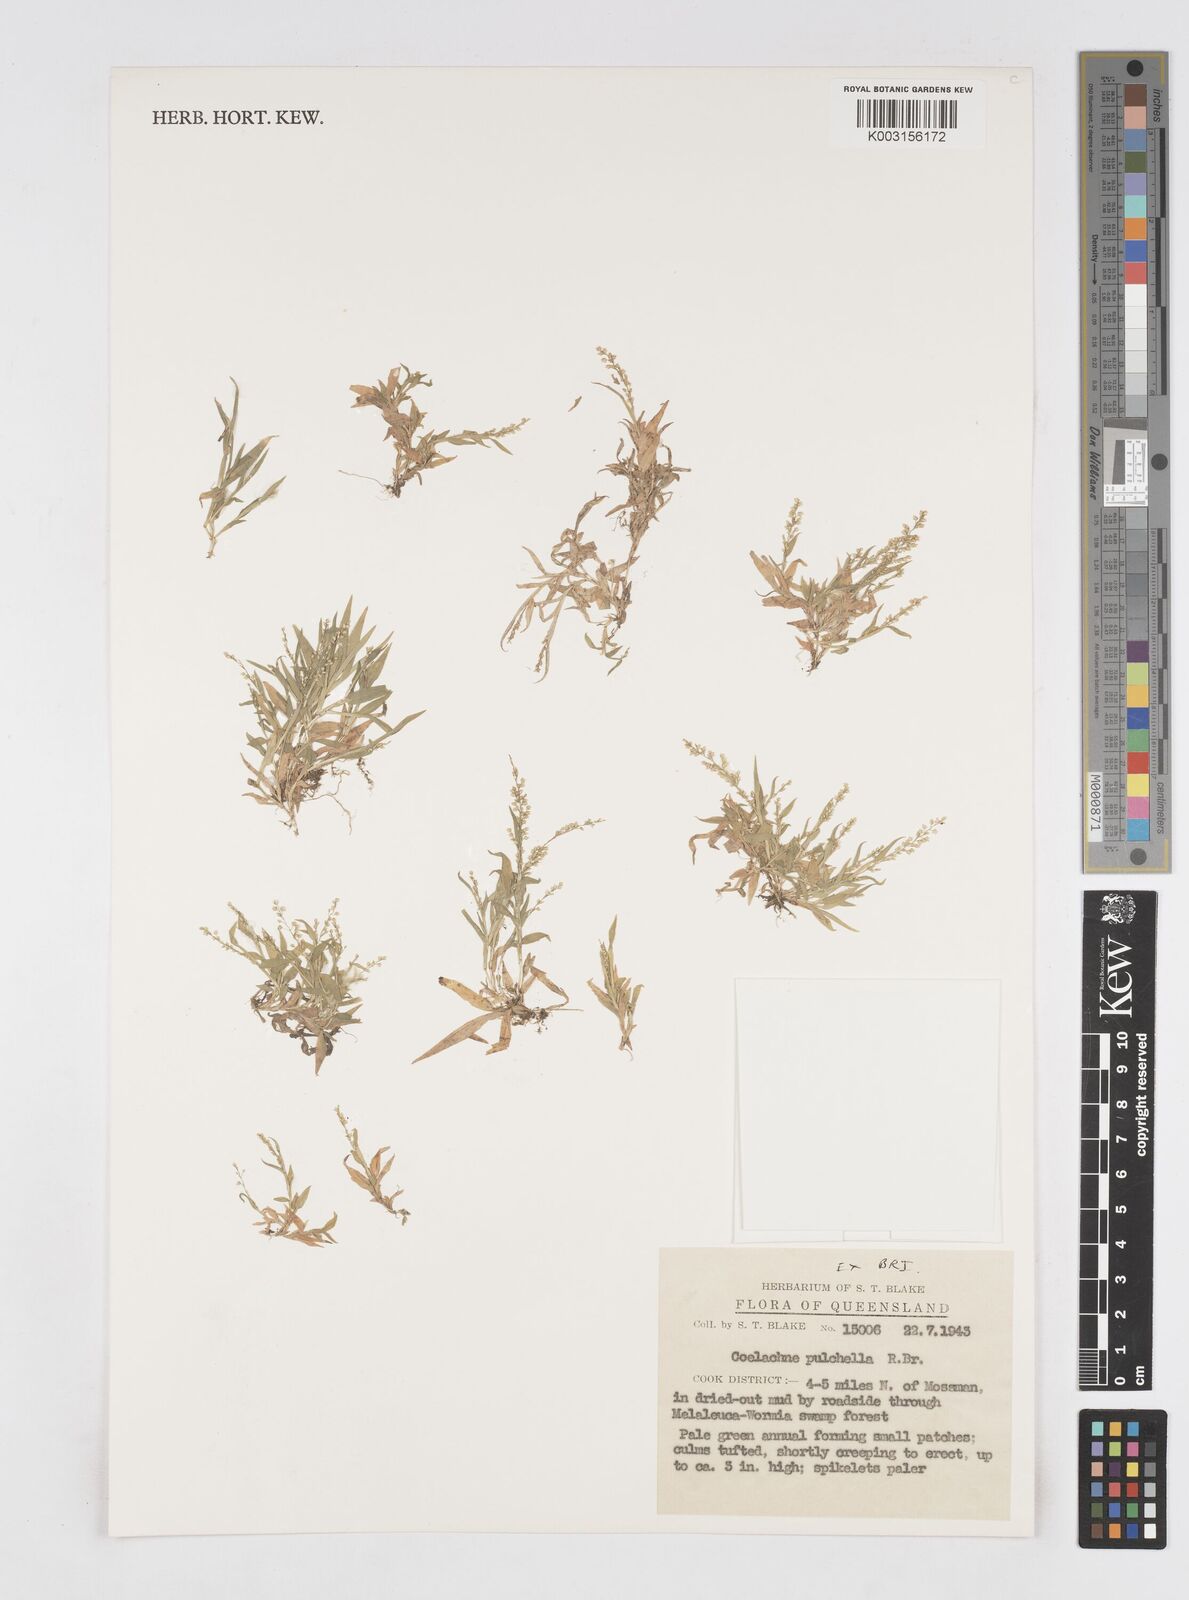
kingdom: Plantae
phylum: Tracheophyta
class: Liliopsida
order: Poales
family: Poaceae
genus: Coelachne
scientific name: Coelachne pulchella
